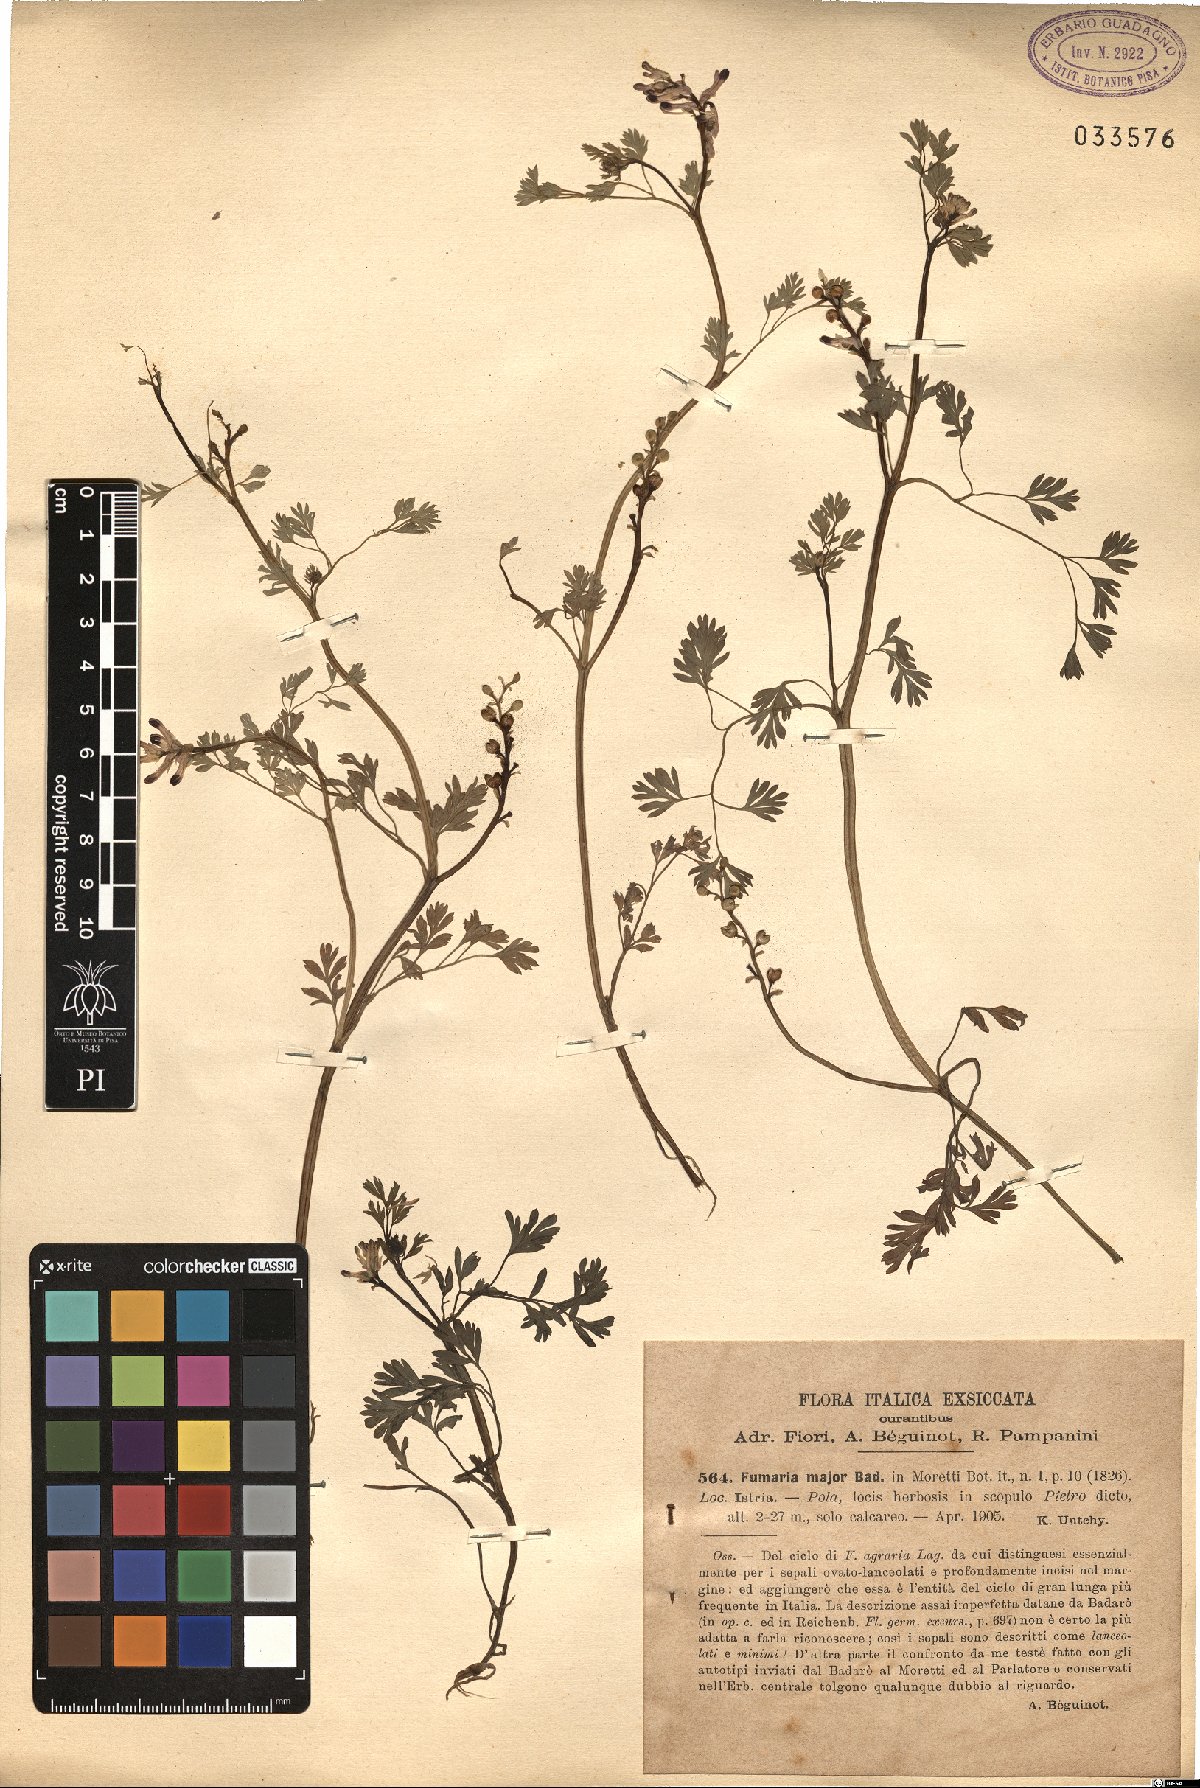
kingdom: Plantae
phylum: Tracheophyta
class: Magnoliopsida
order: Ranunculales
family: Papaveraceae
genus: Fumaria
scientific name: Fumaria barnolae
